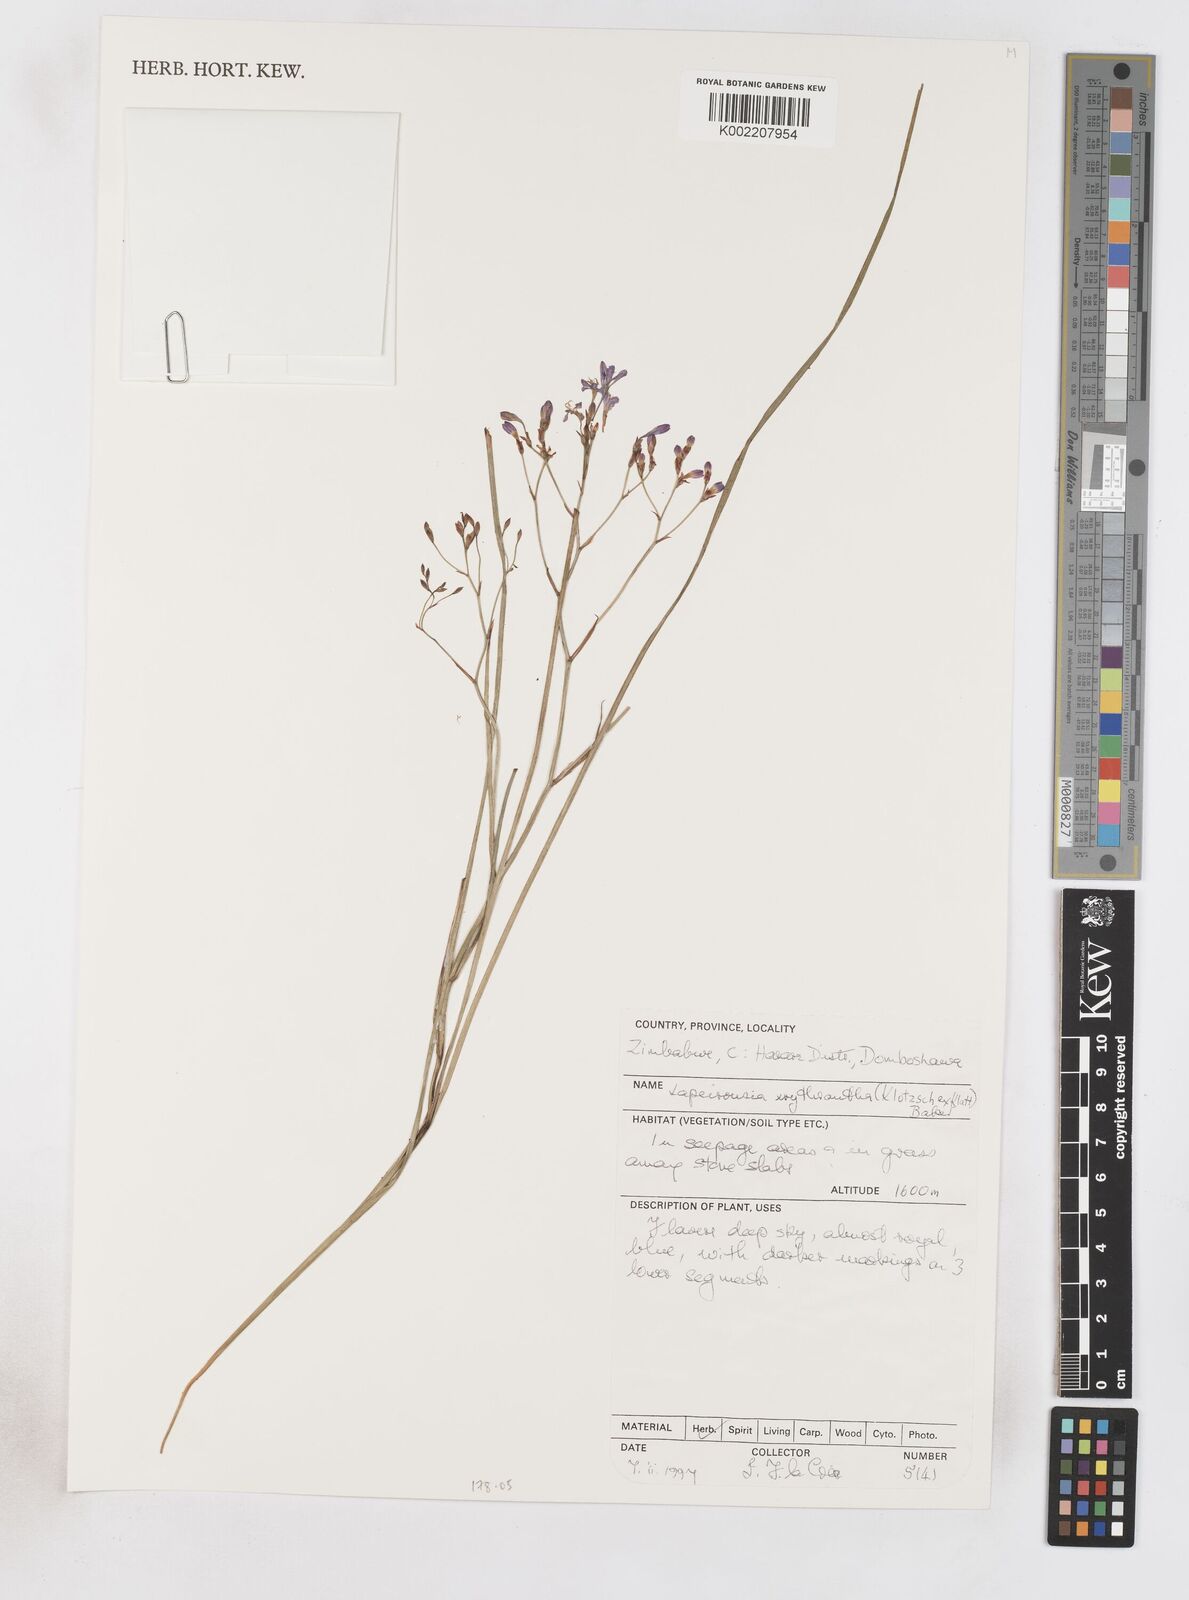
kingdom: Plantae
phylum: Tracheophyta
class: Liliopsida
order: Asparagales
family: Iridaceae
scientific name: Iridaceae
